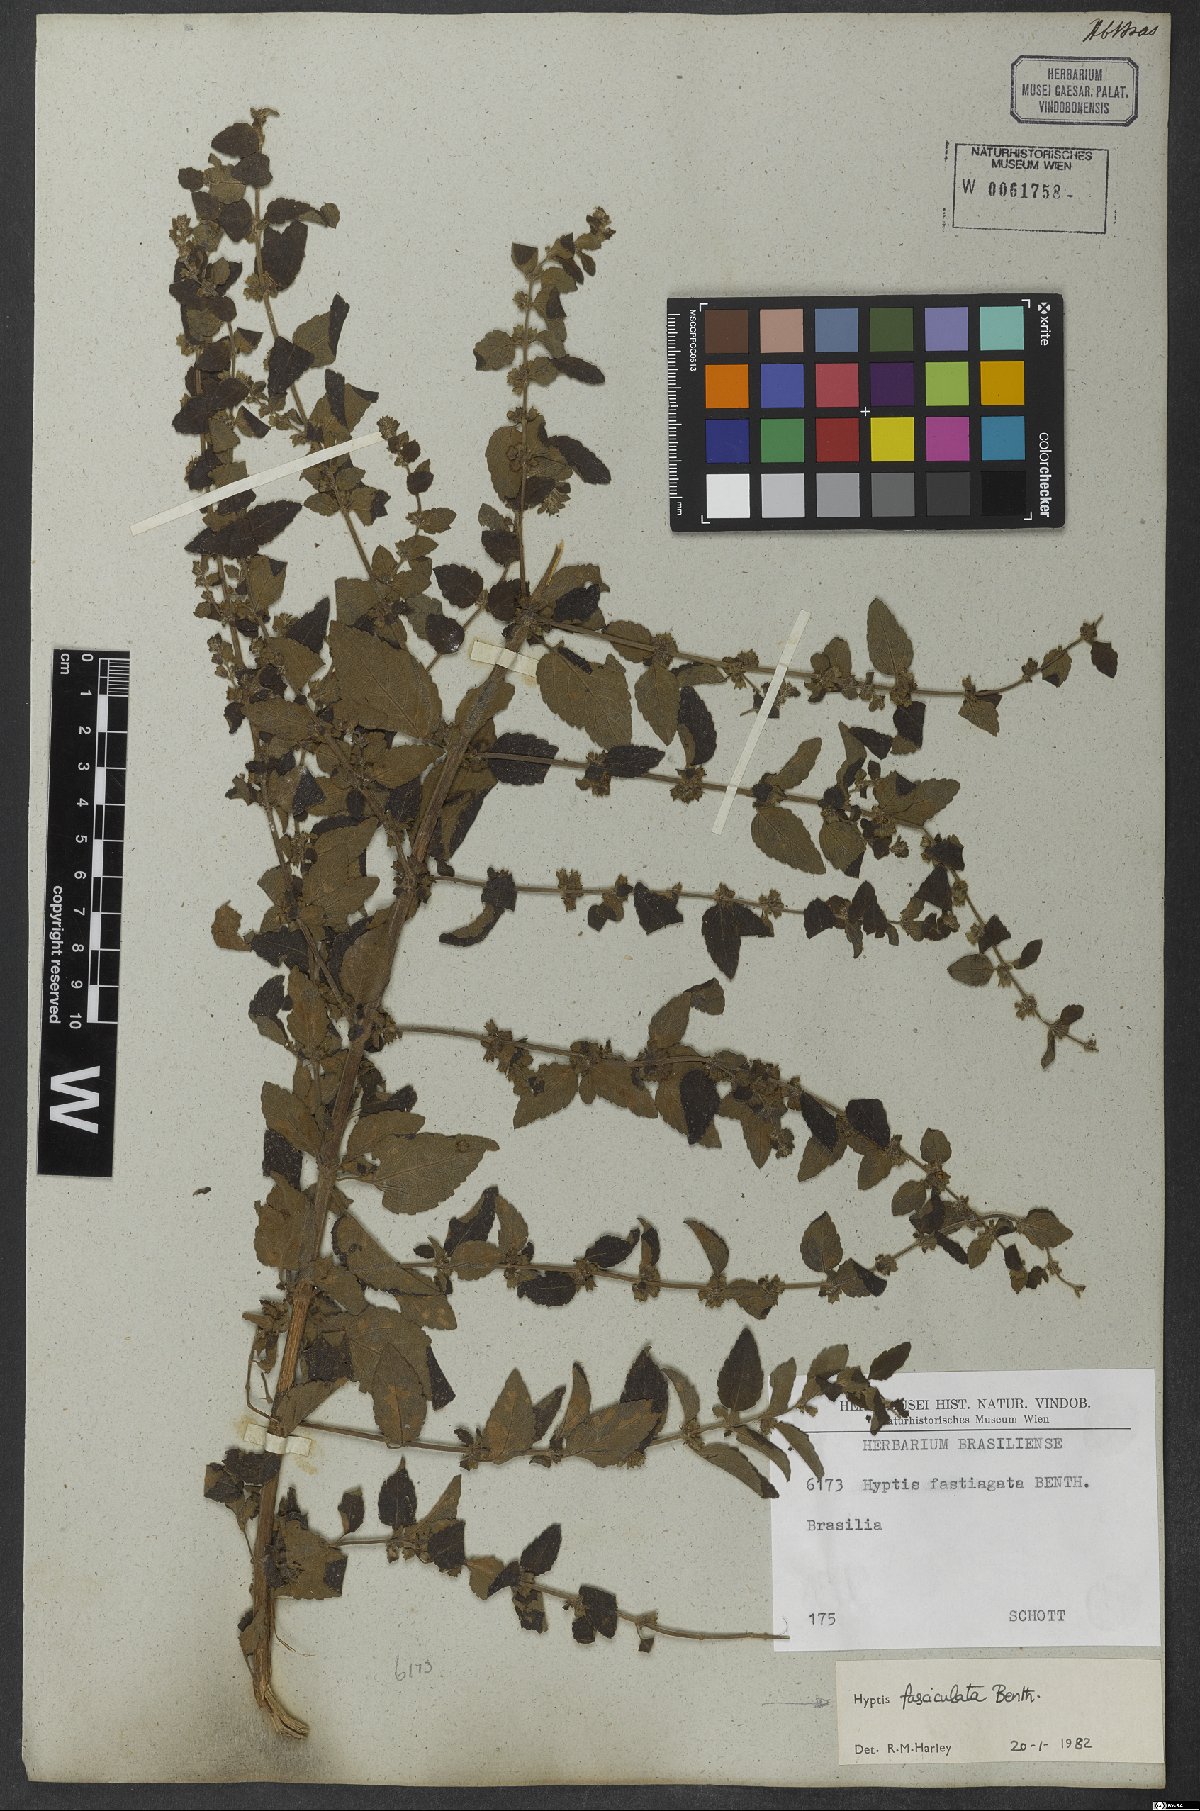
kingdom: Plantae
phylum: Tracheophyta
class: Magnoliopsida
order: Lamiales
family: Lamiaceae
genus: Condea
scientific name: Condea undulata
